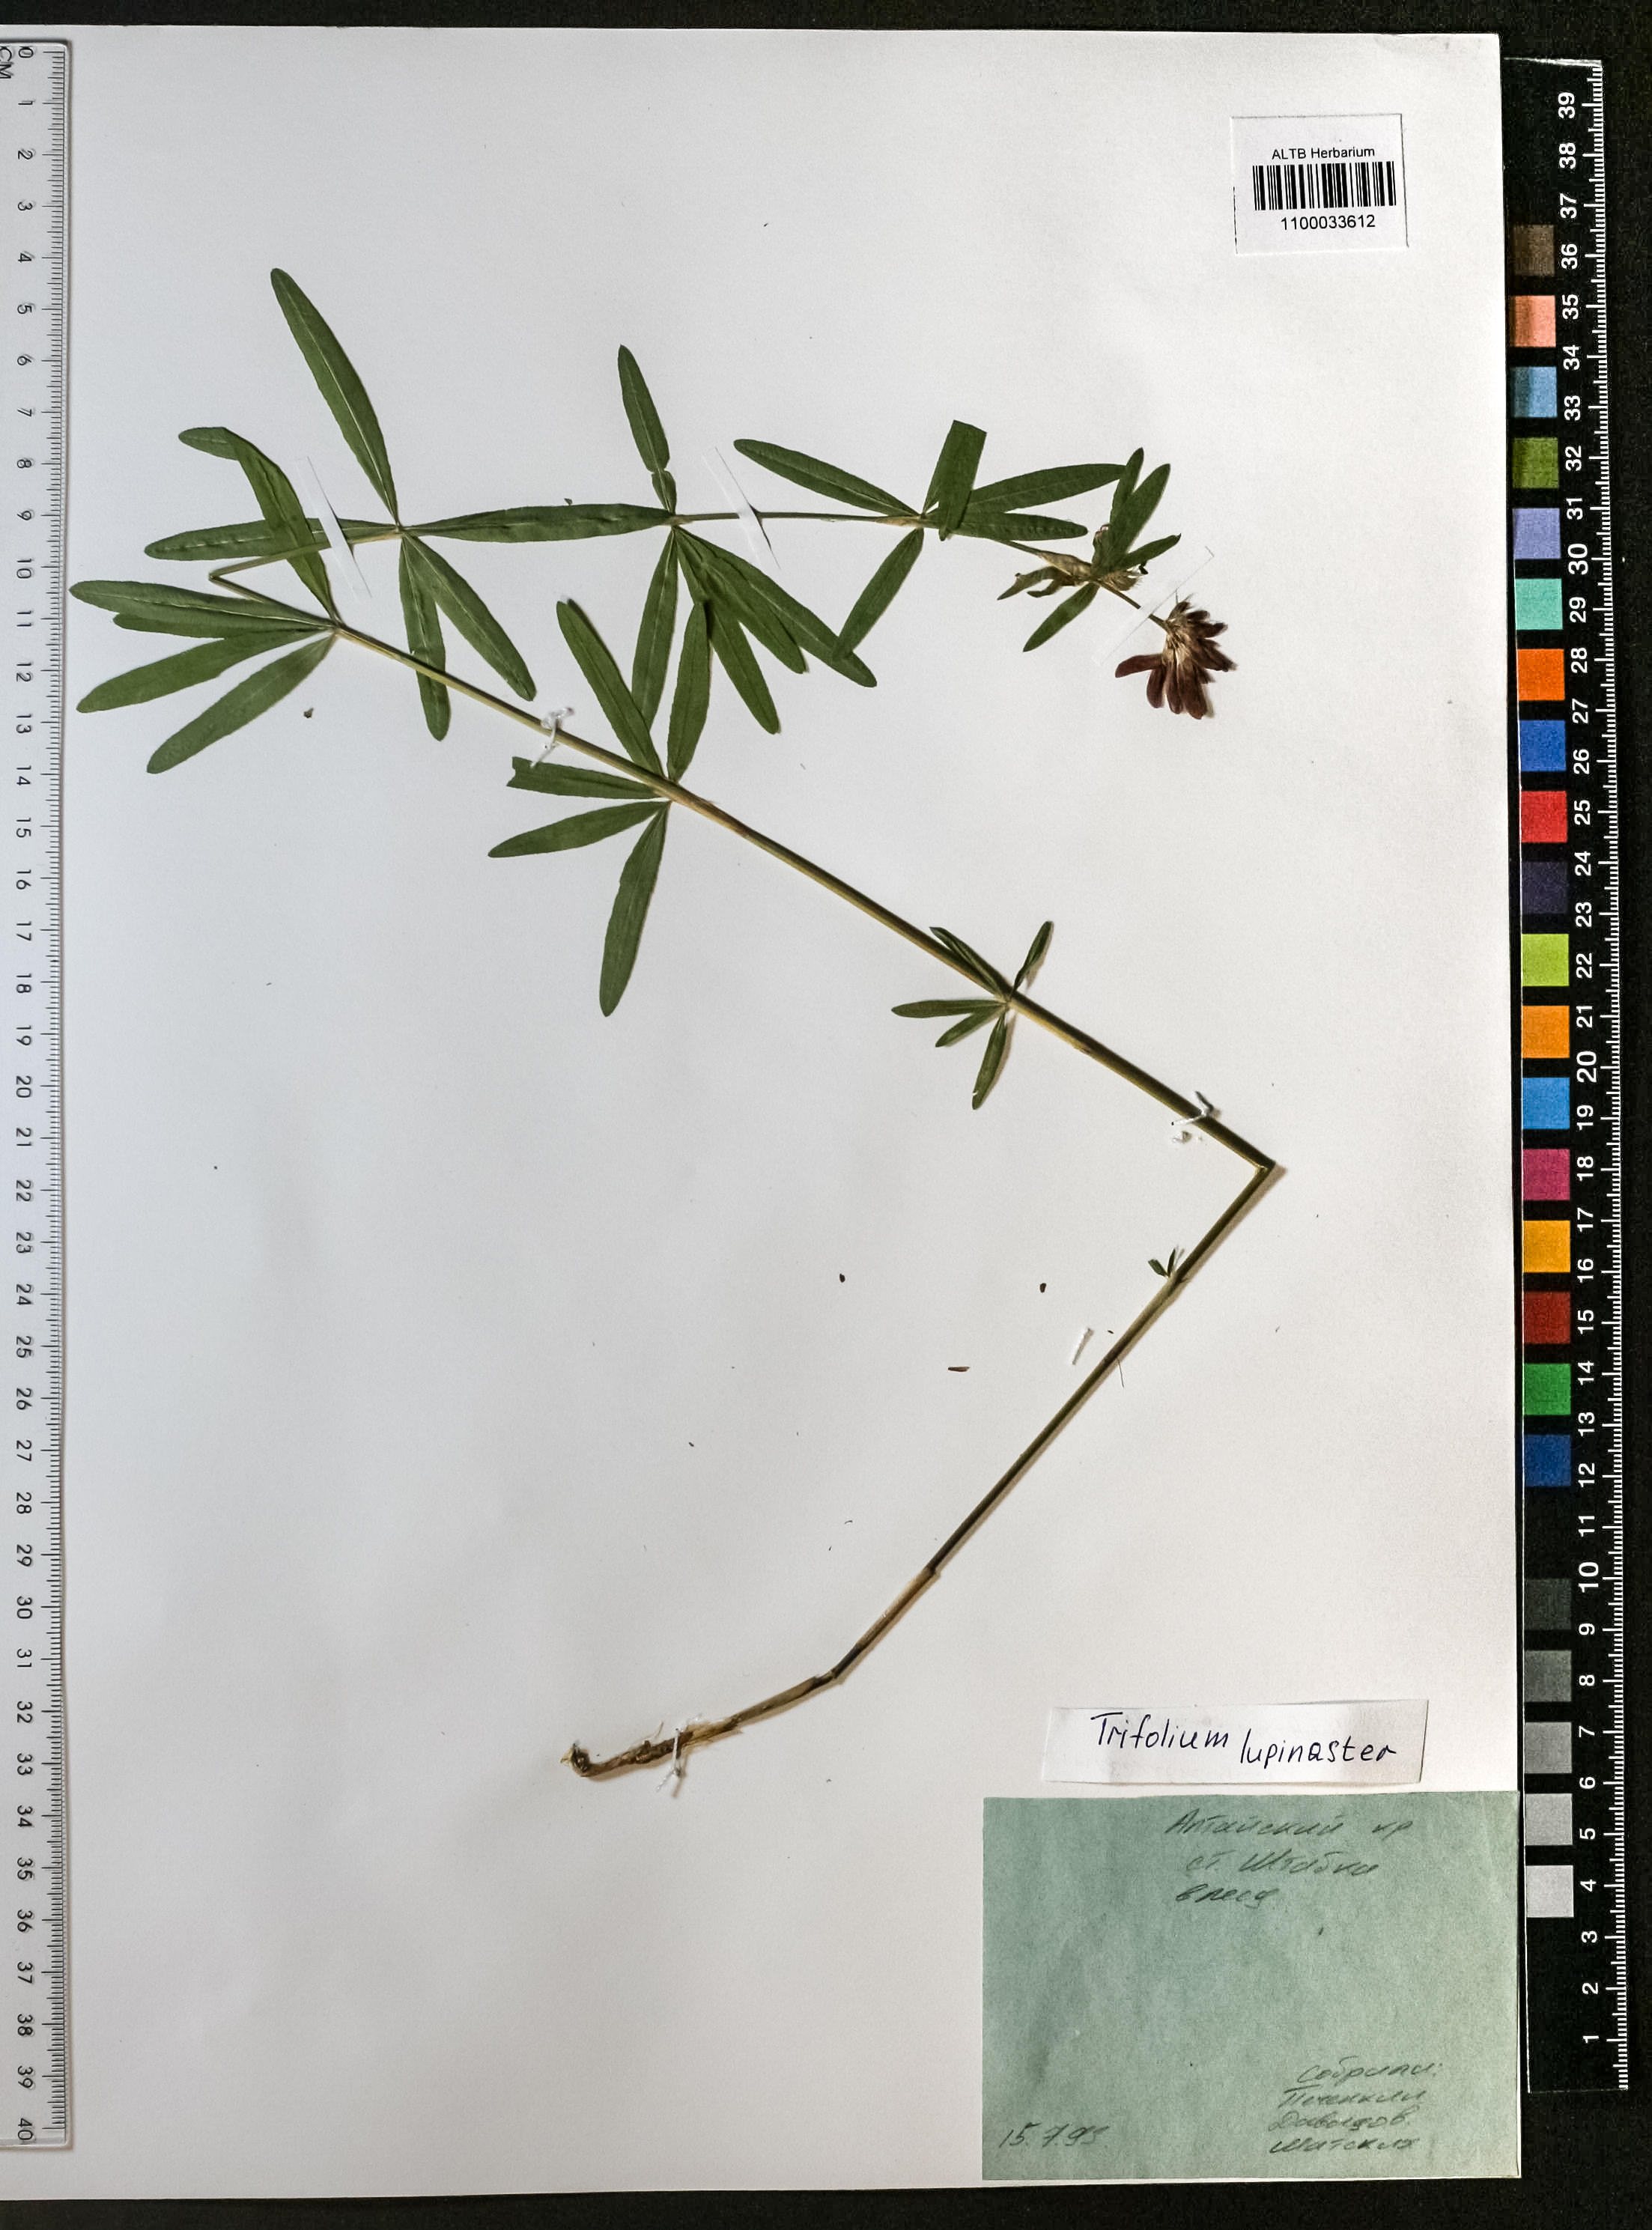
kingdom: Plantae
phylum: Tracheophyta
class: Magnoliopsida
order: Fabales
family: Fabaceae
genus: Trifolium
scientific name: Trifolium lupinaster
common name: Lupine clover
